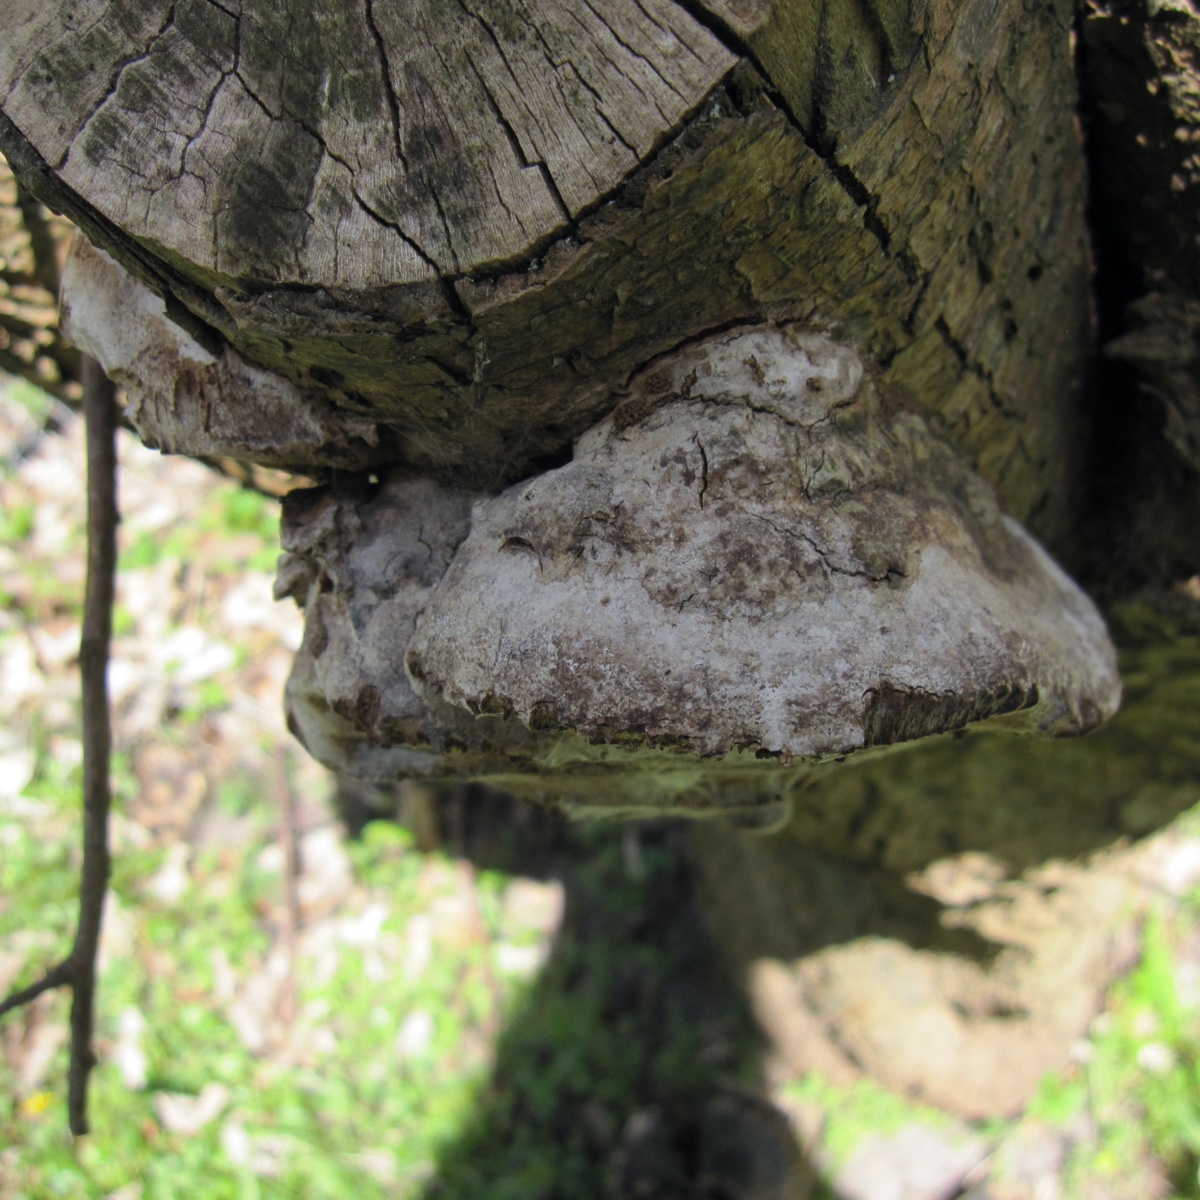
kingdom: Fungi
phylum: Basidiomycota
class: Agaricomycetes
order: Hymenochaetales
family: Hymenochaetaceae
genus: Phellinus
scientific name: Phellinus pomaceus
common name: blomme-ildporesvamp
